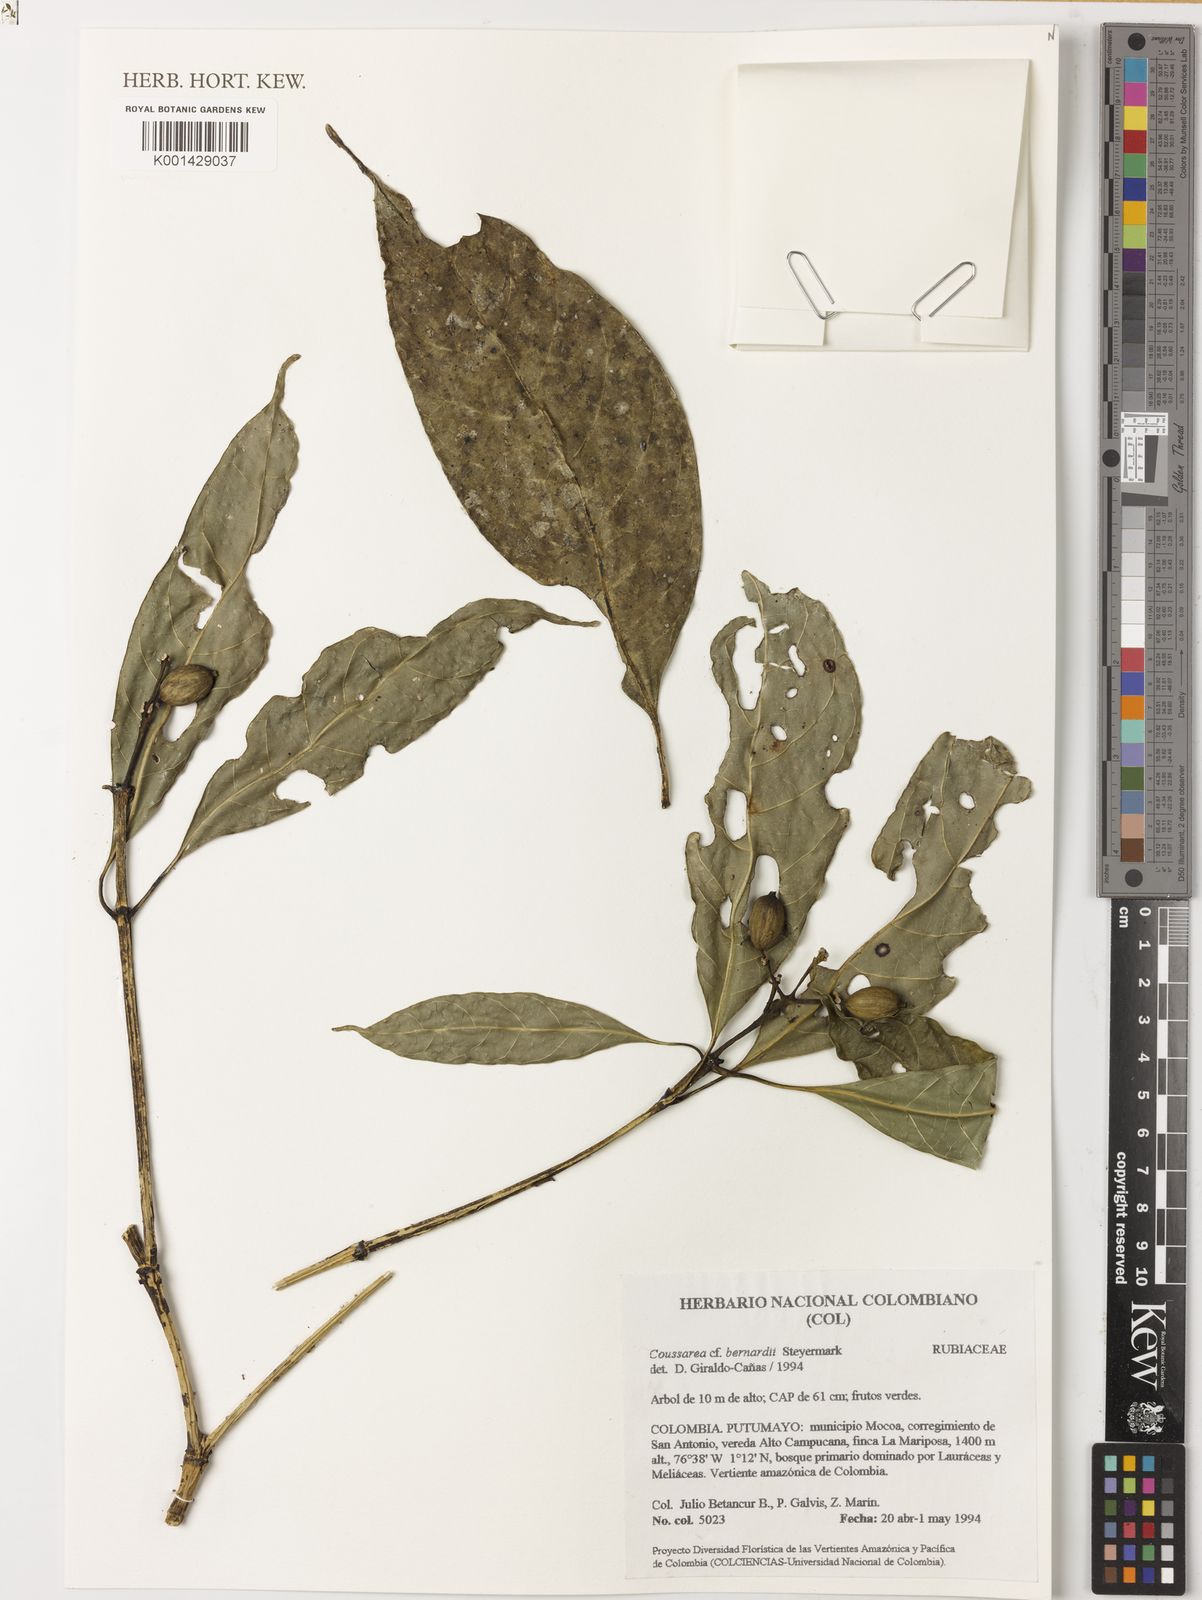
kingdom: Plantae
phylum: Tracheophyta
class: Magnoliopsida
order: Gentianales
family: Rubiaceae
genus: Coussarea
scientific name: Coussarea bernardii
